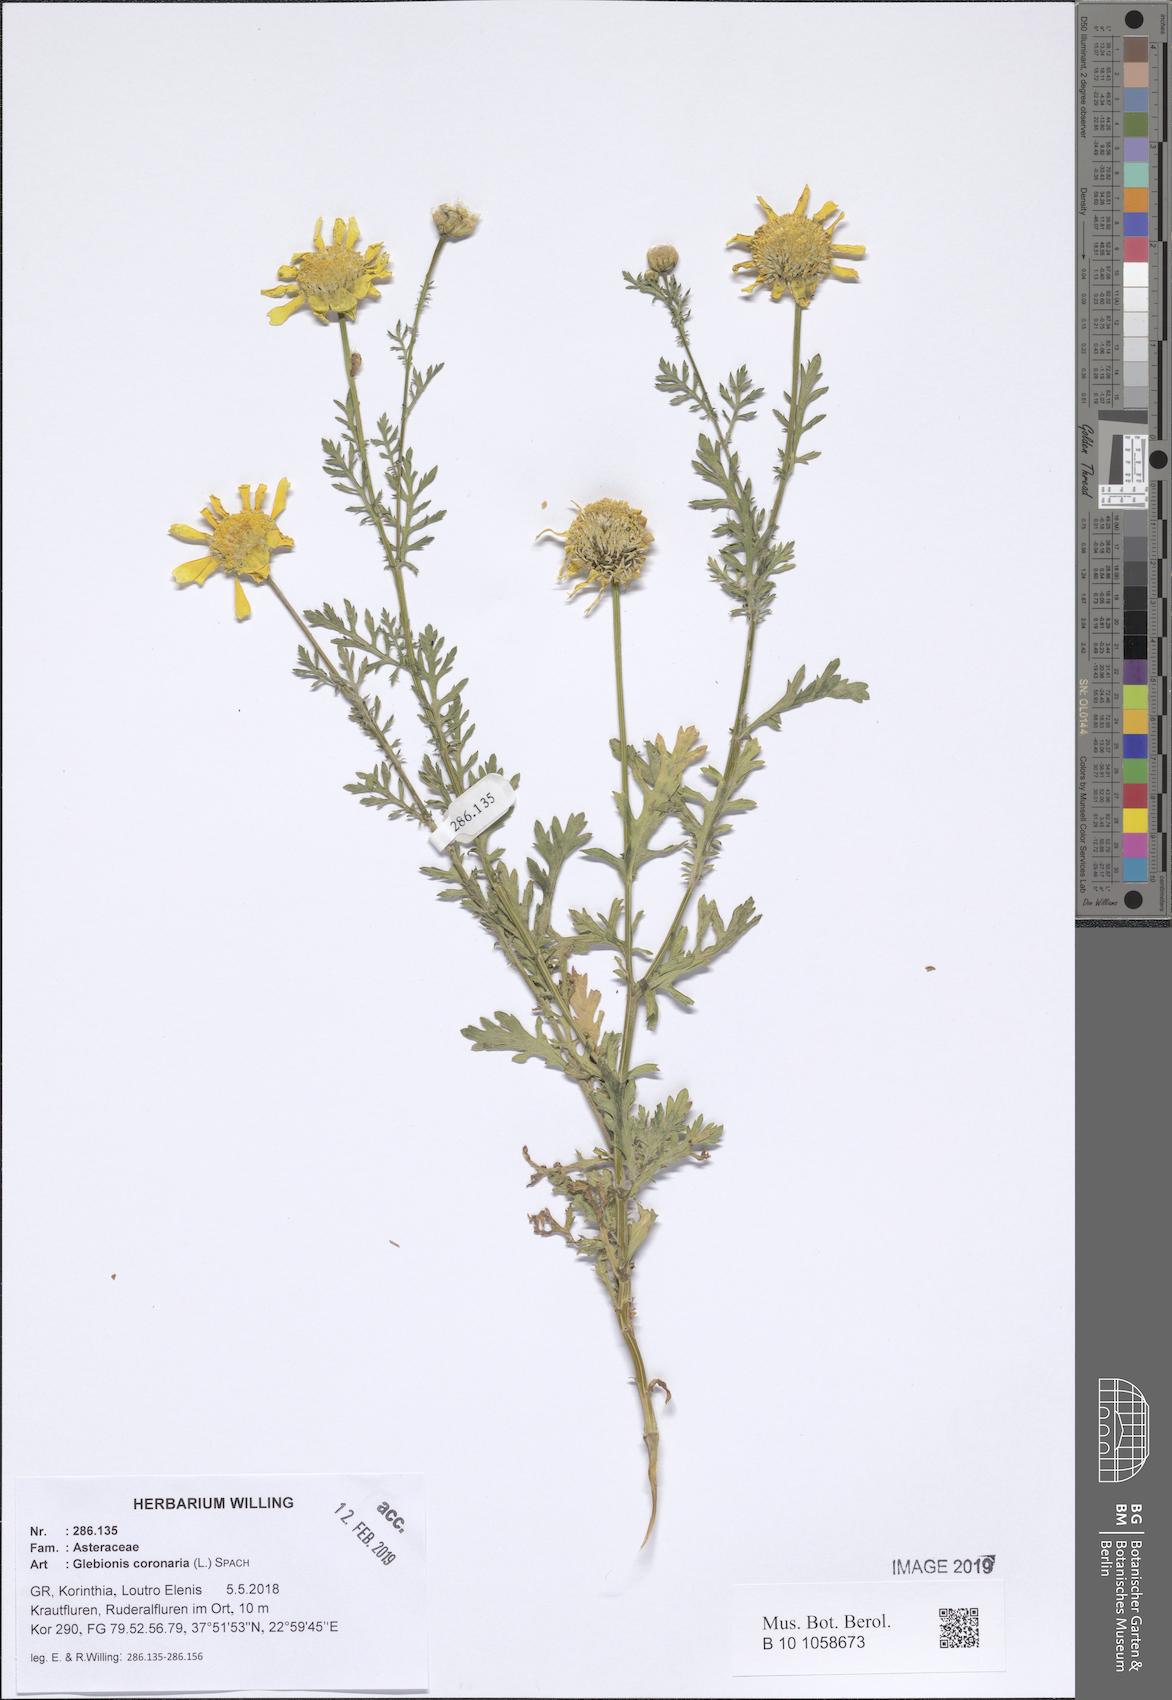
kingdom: Plantae
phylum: Tracheophyta
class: Magnoliopsida
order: Asterales
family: Asteraceae
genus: Glebionis
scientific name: Glebionis coronaria
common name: Crowndaisy
